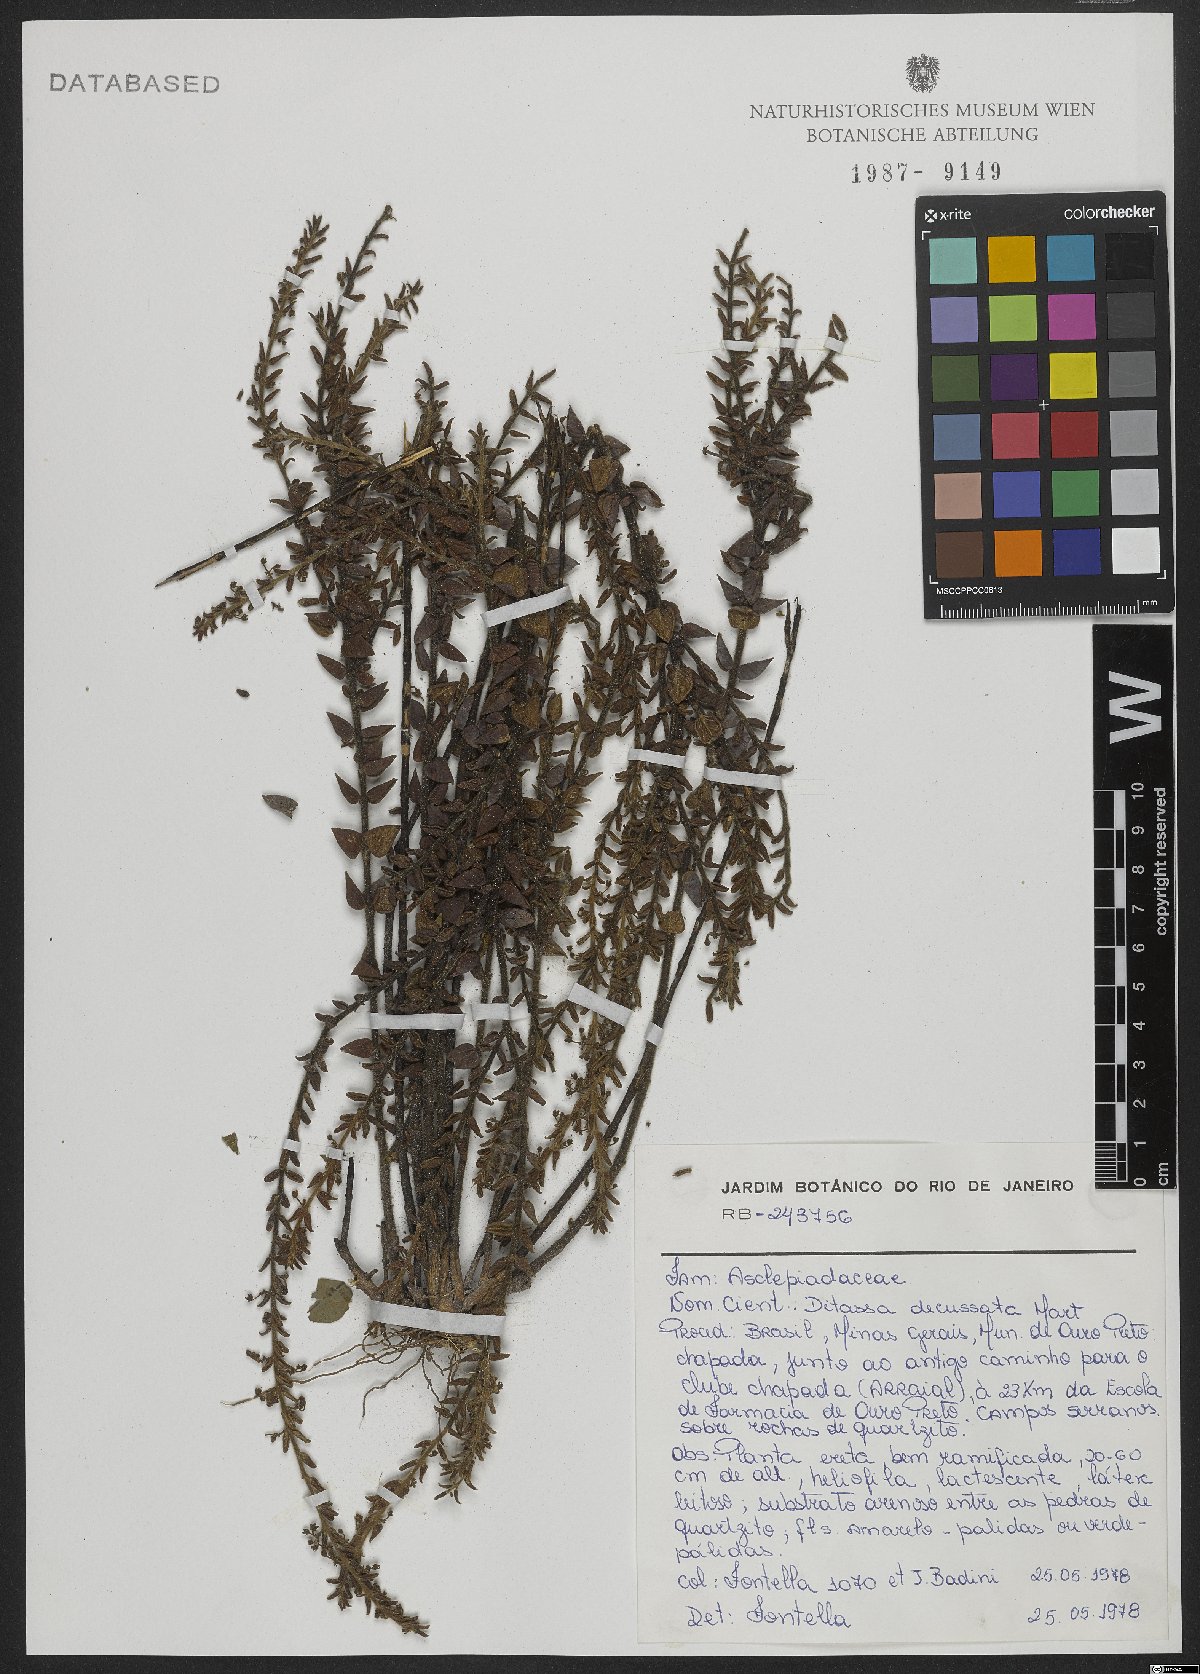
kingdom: Plantae
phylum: Tracheophyta
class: Magnoliopsida
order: Gentianales
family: Apocynaceae
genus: Minaria
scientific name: Minaria decussata
